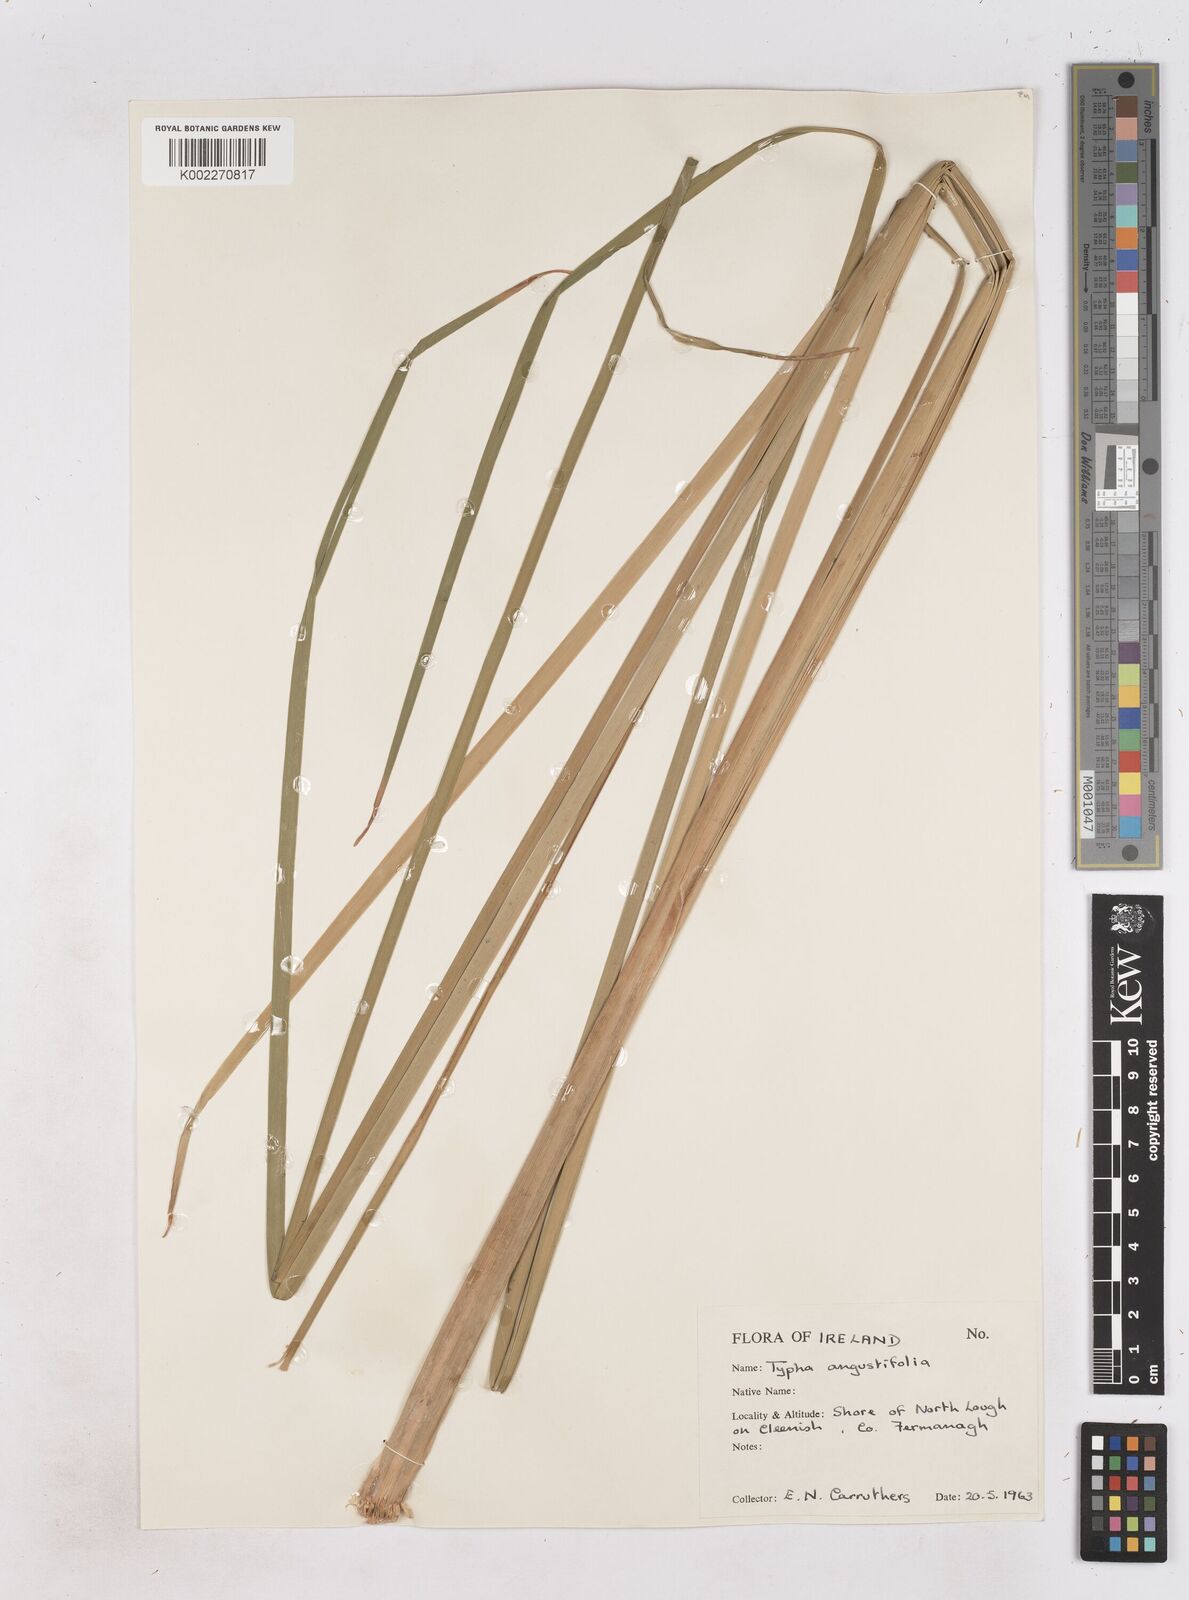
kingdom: Plantae
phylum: Tracheophyta
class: Liliopsida
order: Poales
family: Typhaceae
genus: Typha
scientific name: Typha angustifolia
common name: Lesser bulrush
